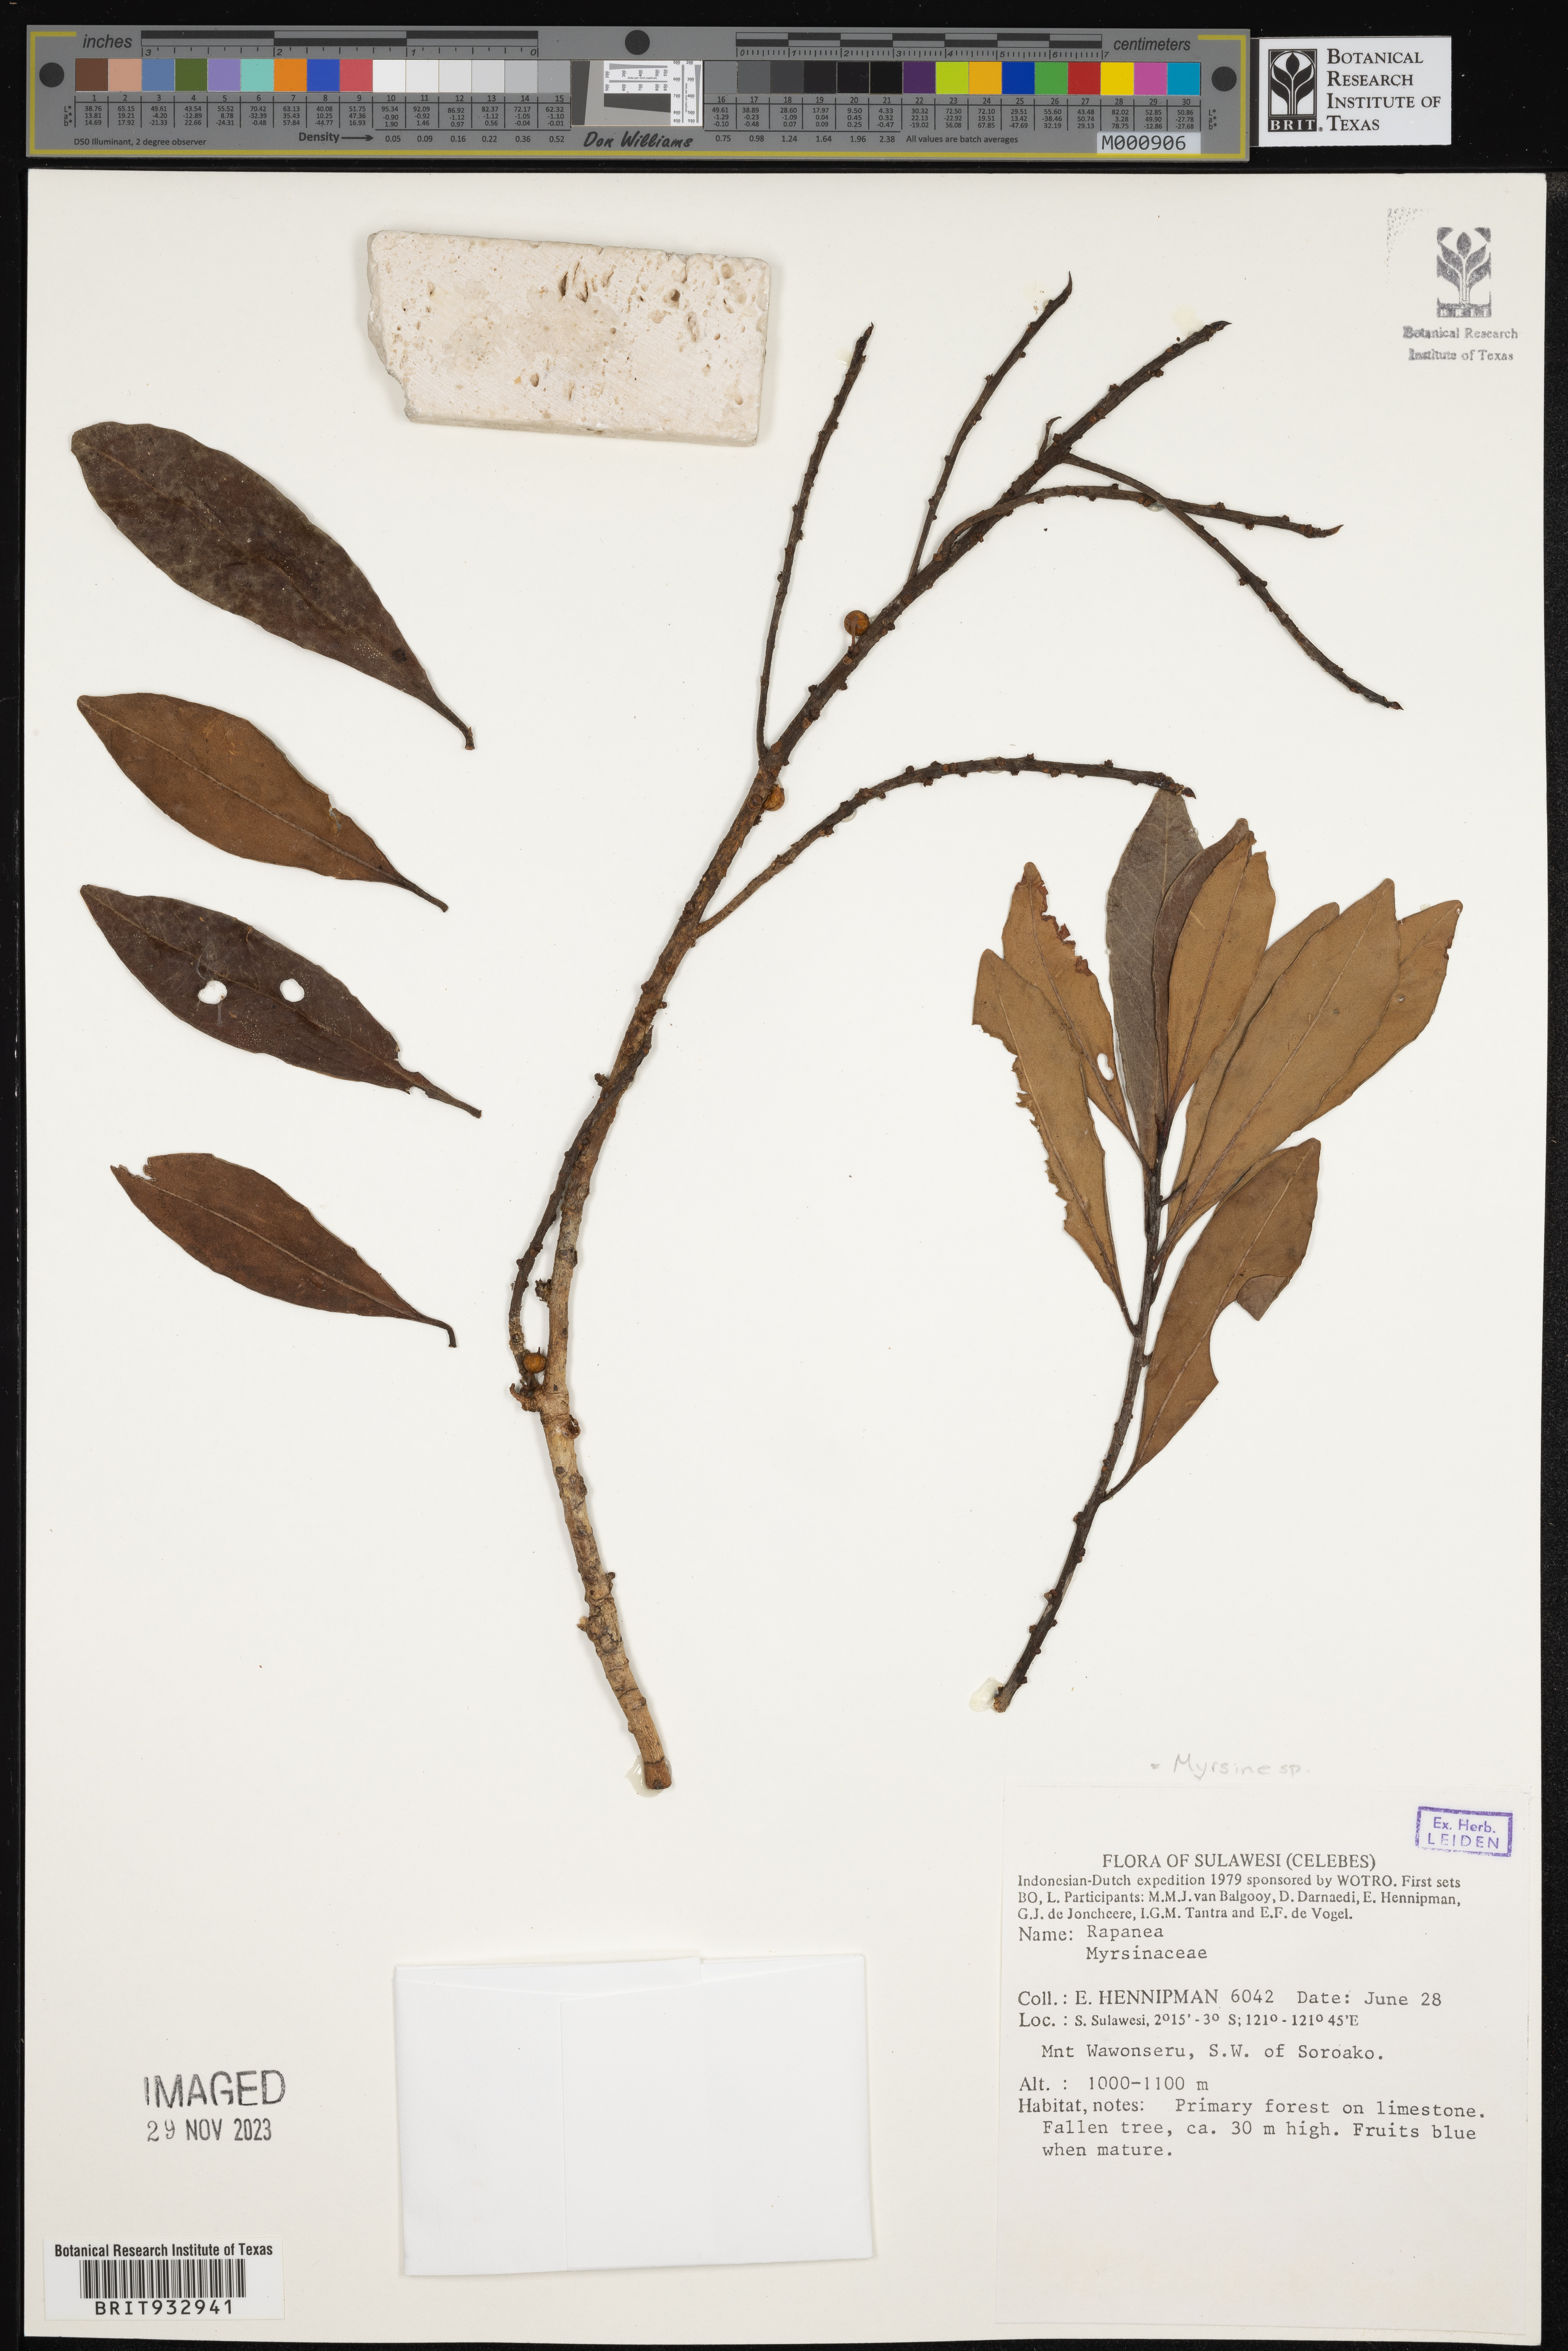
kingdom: Plantae
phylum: Tracheophyta
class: Magnoliopsida
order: Ericales
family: Primulaceae
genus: Myrsine
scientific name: Myrsine
